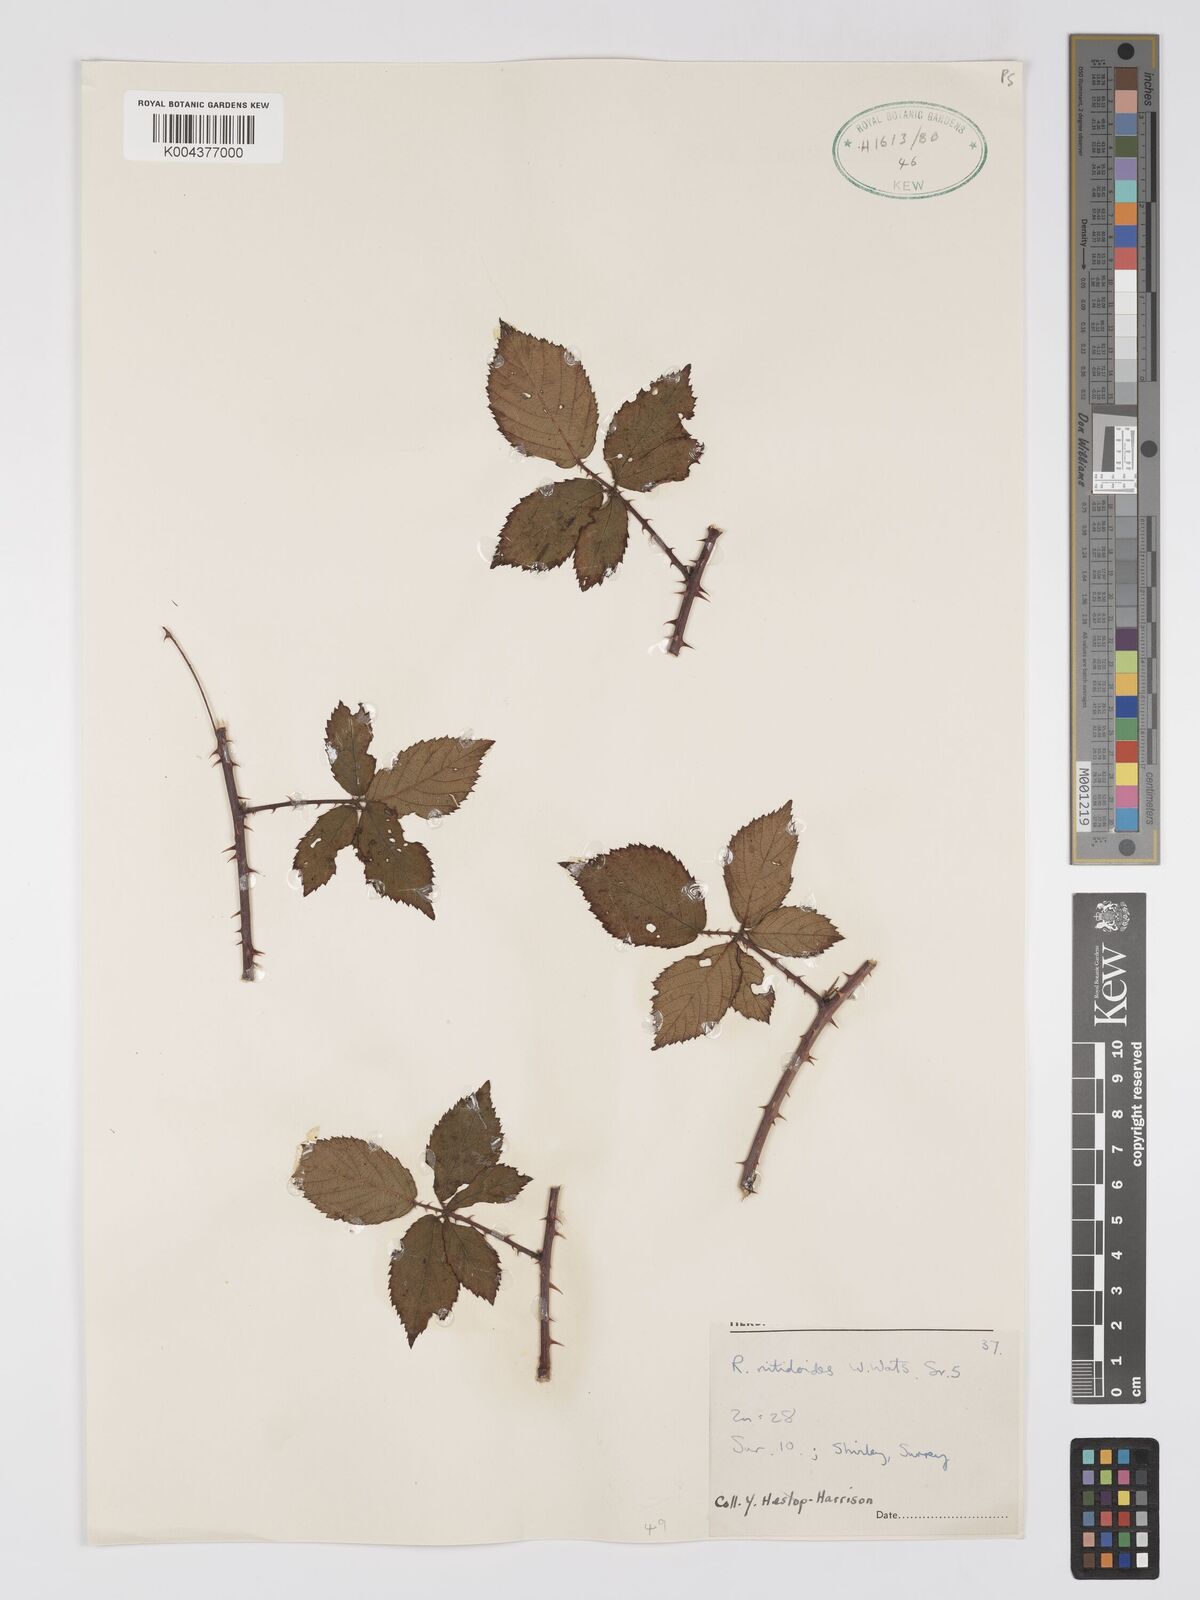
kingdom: Plantae
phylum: Tracheophyta
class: Magnoliopsida
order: Rosales
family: Rosaceae
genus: Rubus
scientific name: Rubus nitidiformis
